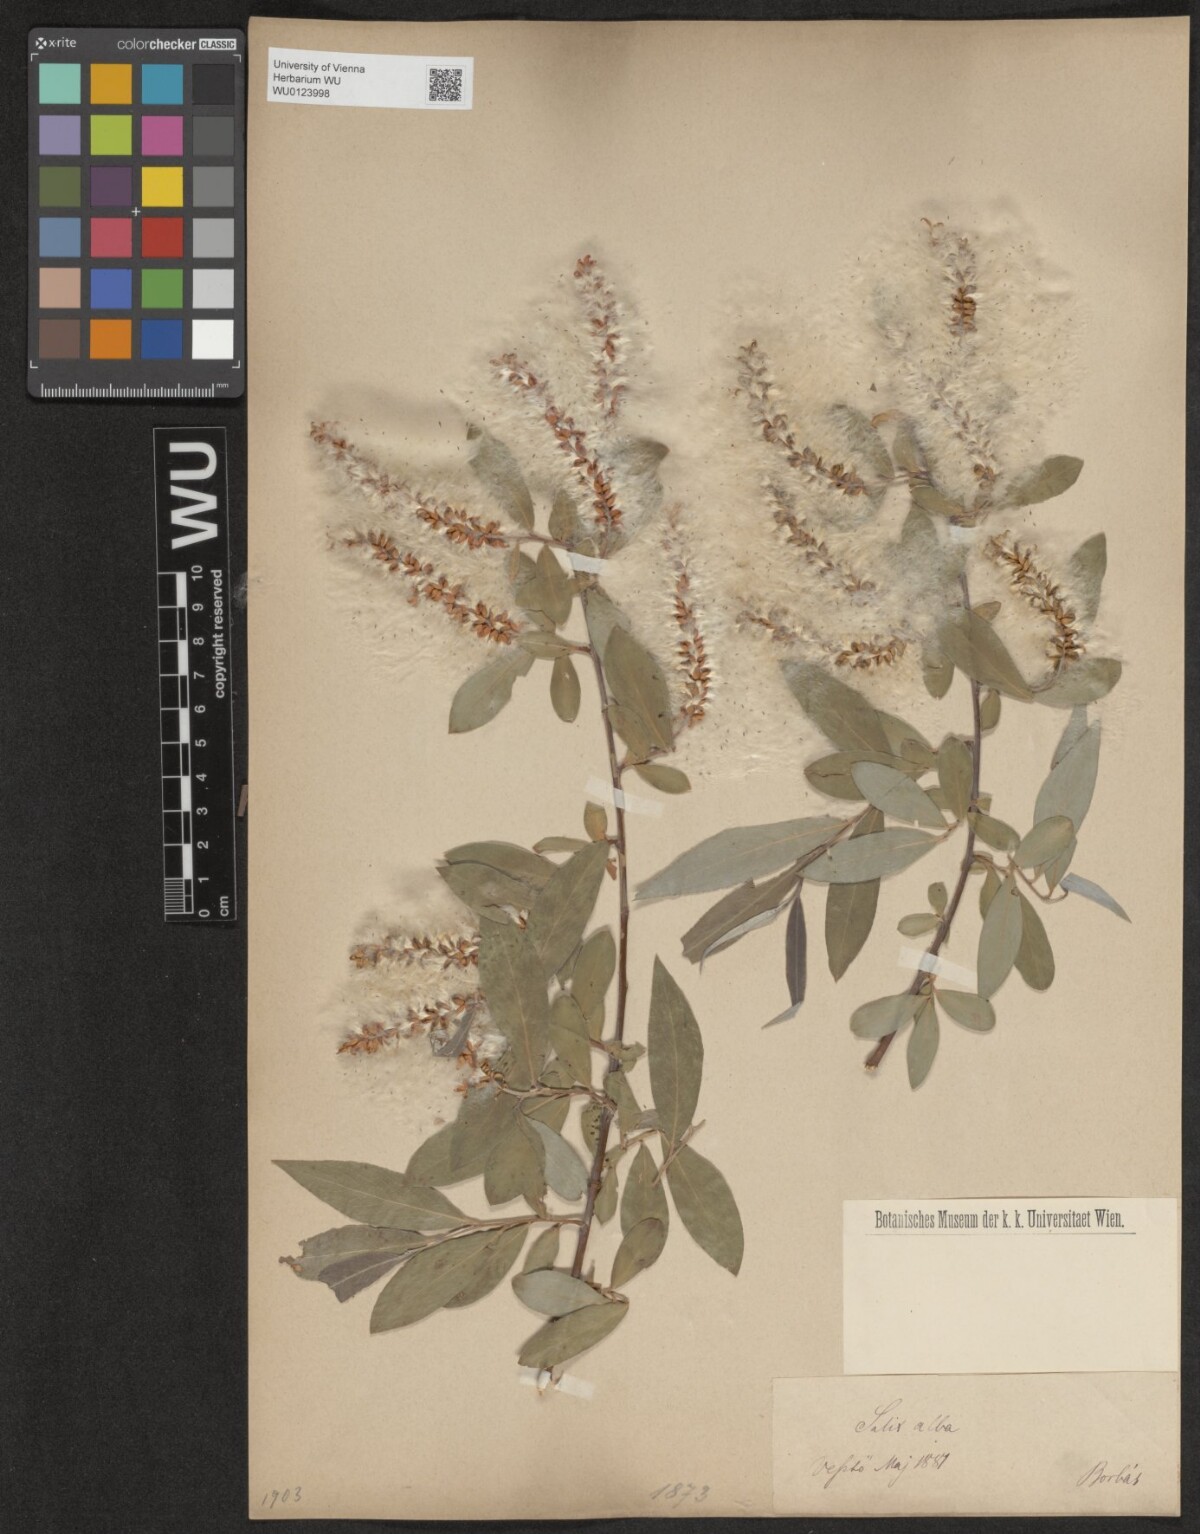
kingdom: Plantae
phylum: Tracheophyta
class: Magnoliopsida
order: Malpighiales
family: Salicaceae
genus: Salix
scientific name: Salix alba
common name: White willow
